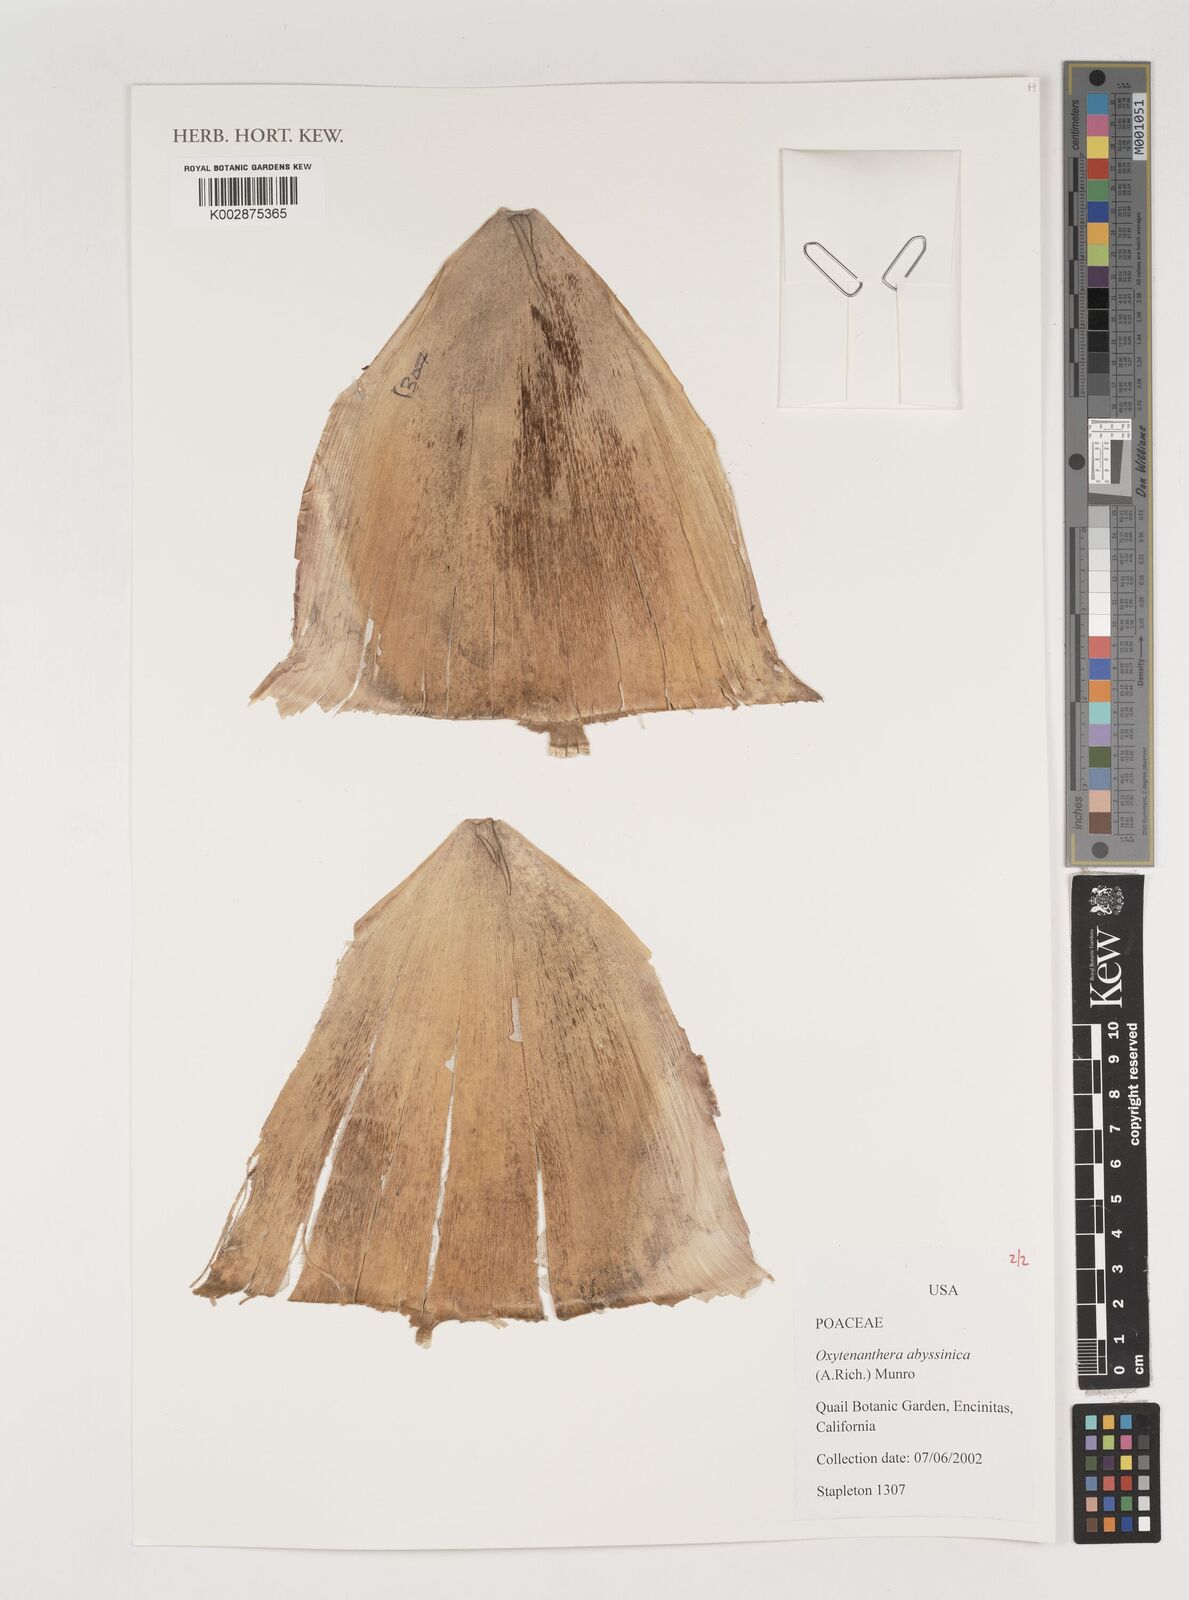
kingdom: Plantae
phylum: Tracheophyta
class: Liliopsida
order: Poales
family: Poaceae
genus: Oxytenanthera
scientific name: Oxytenanthera abyssinica
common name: Wine bamboo
